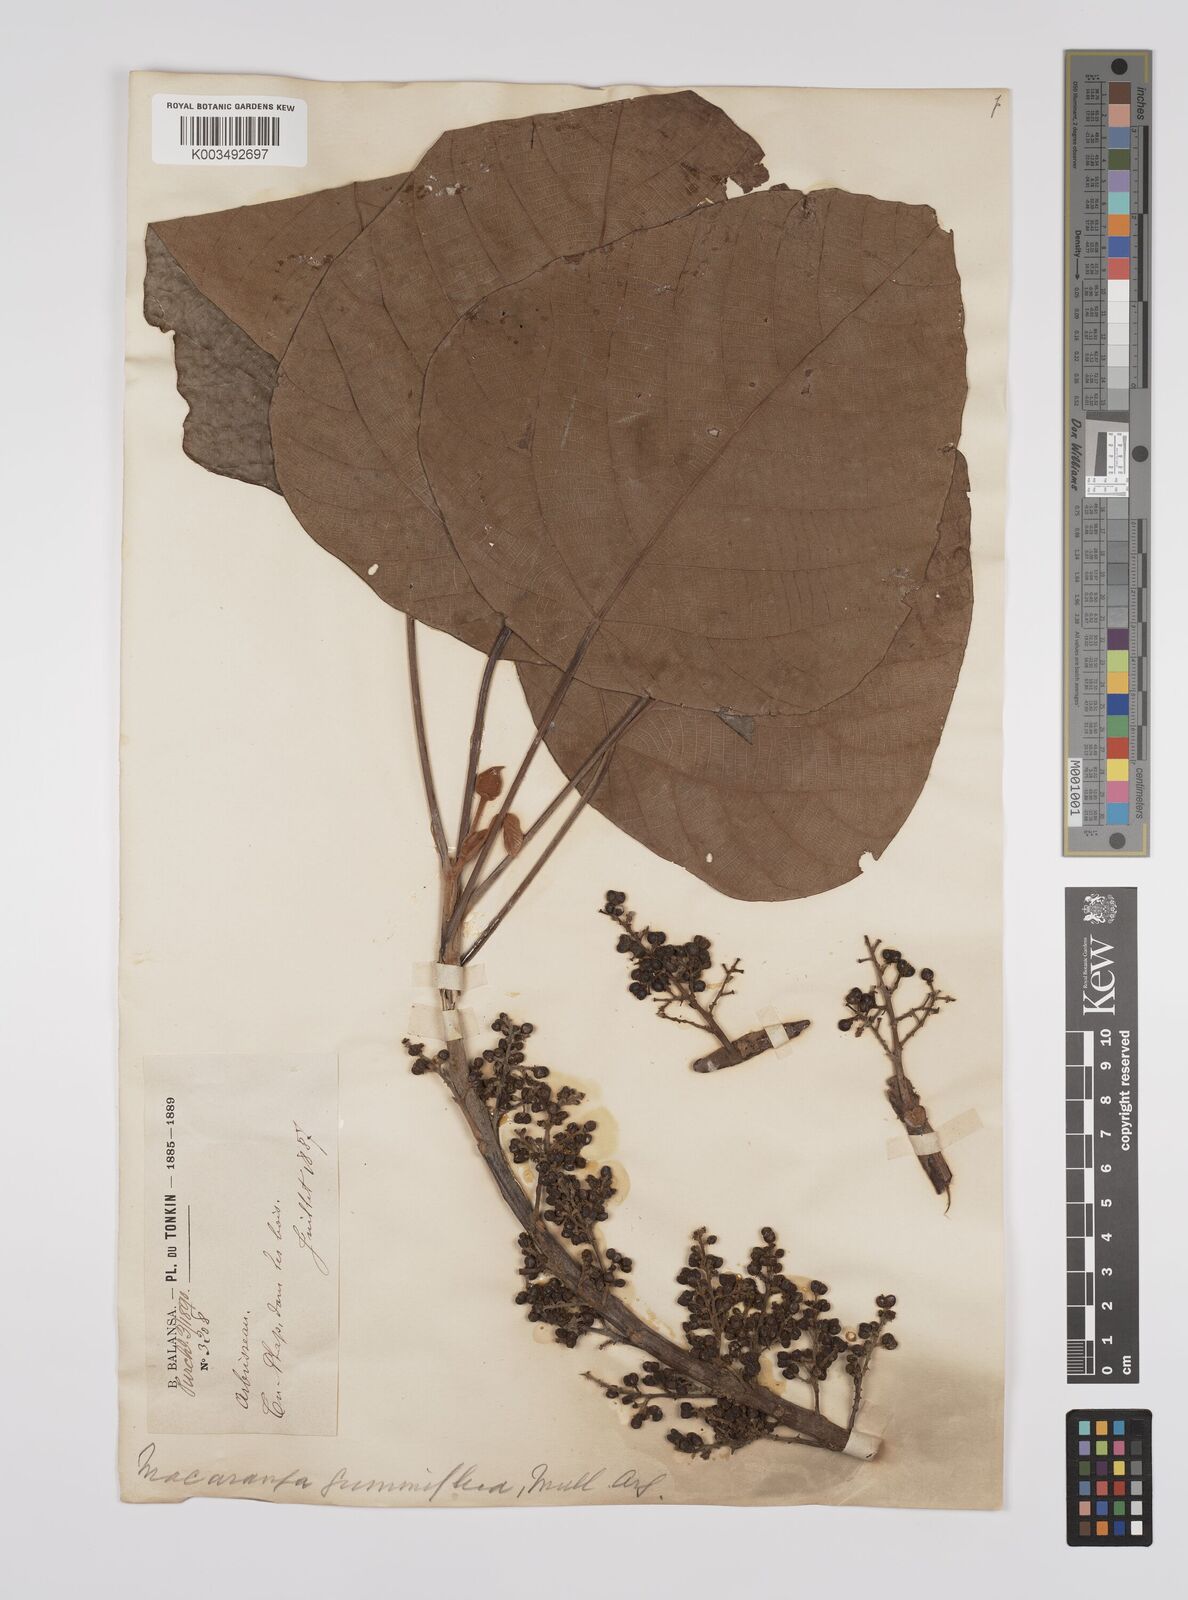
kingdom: Plantae
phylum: Tracheophyta
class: Magnoliopsida
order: Malpighiales
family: Euphorbiaceae
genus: Macaranga
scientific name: Macaranga denticulata
